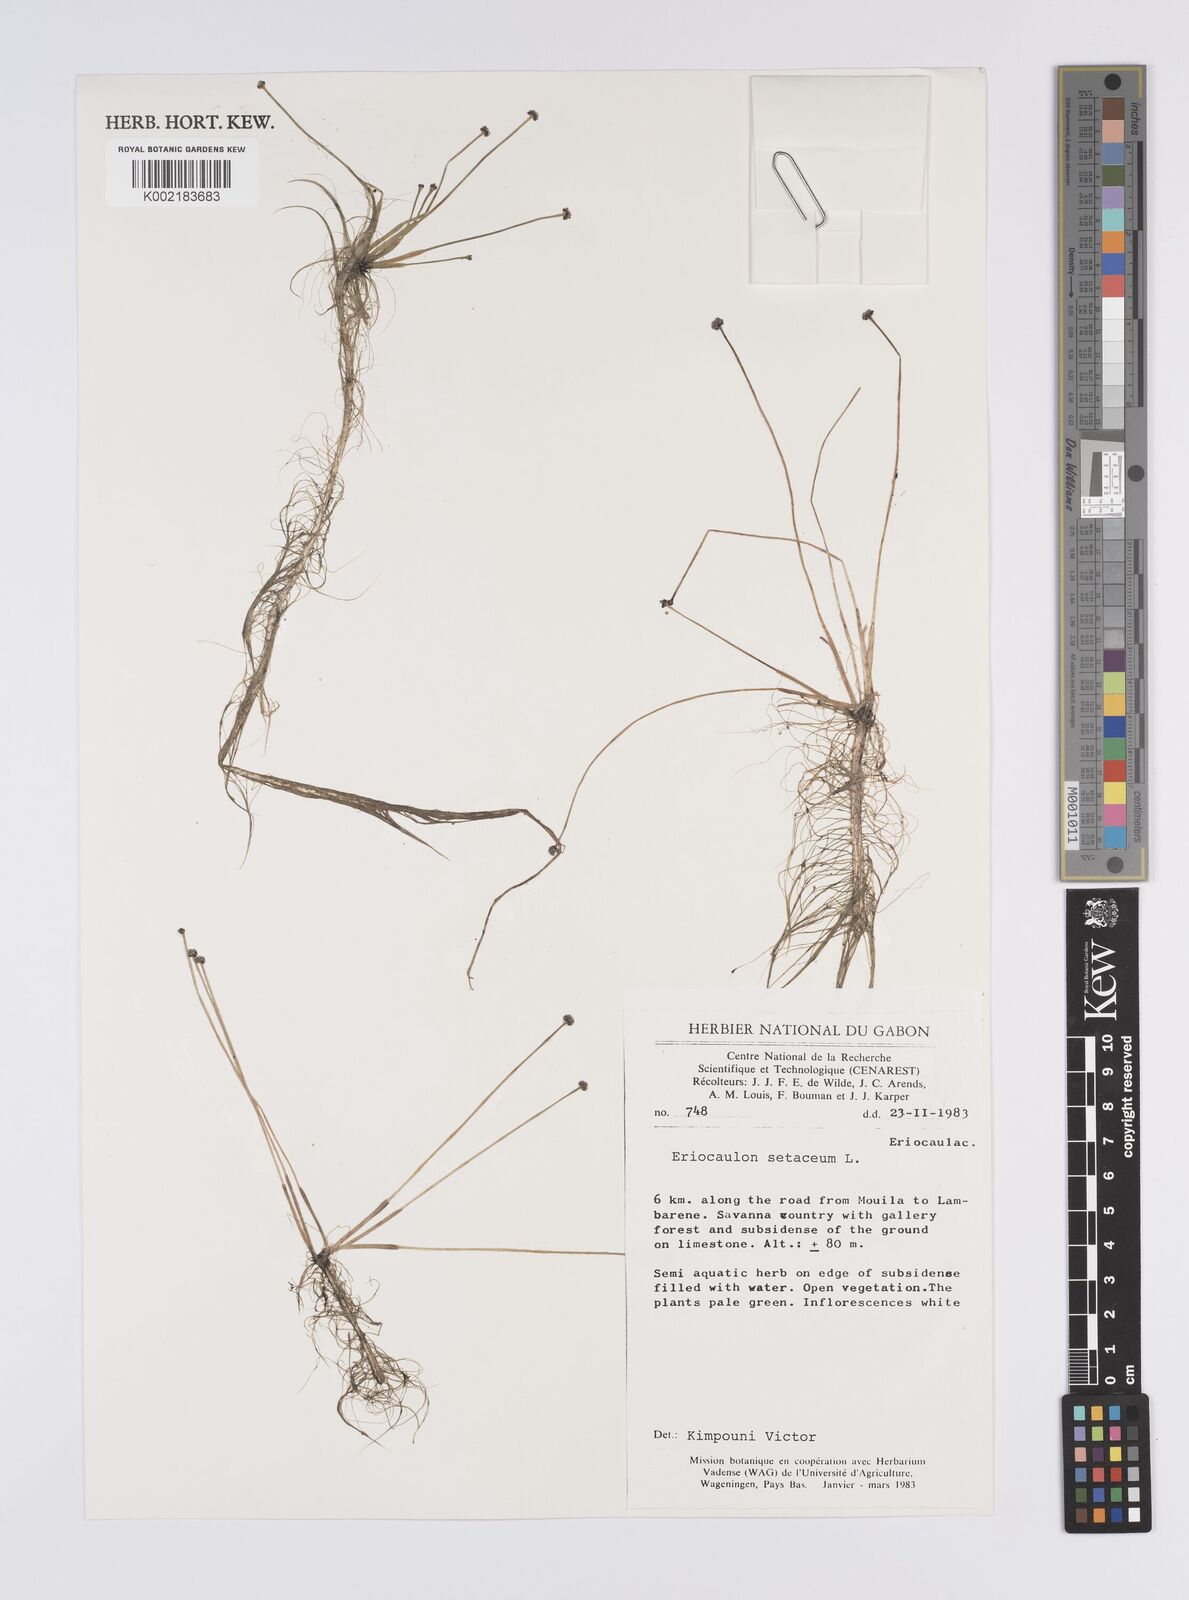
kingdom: Plantae
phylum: Tracheophyta
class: Liliopsida
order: Poales
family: Eriocaulaceae
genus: Eriocaulon
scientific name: Eriocaulon setaceum
